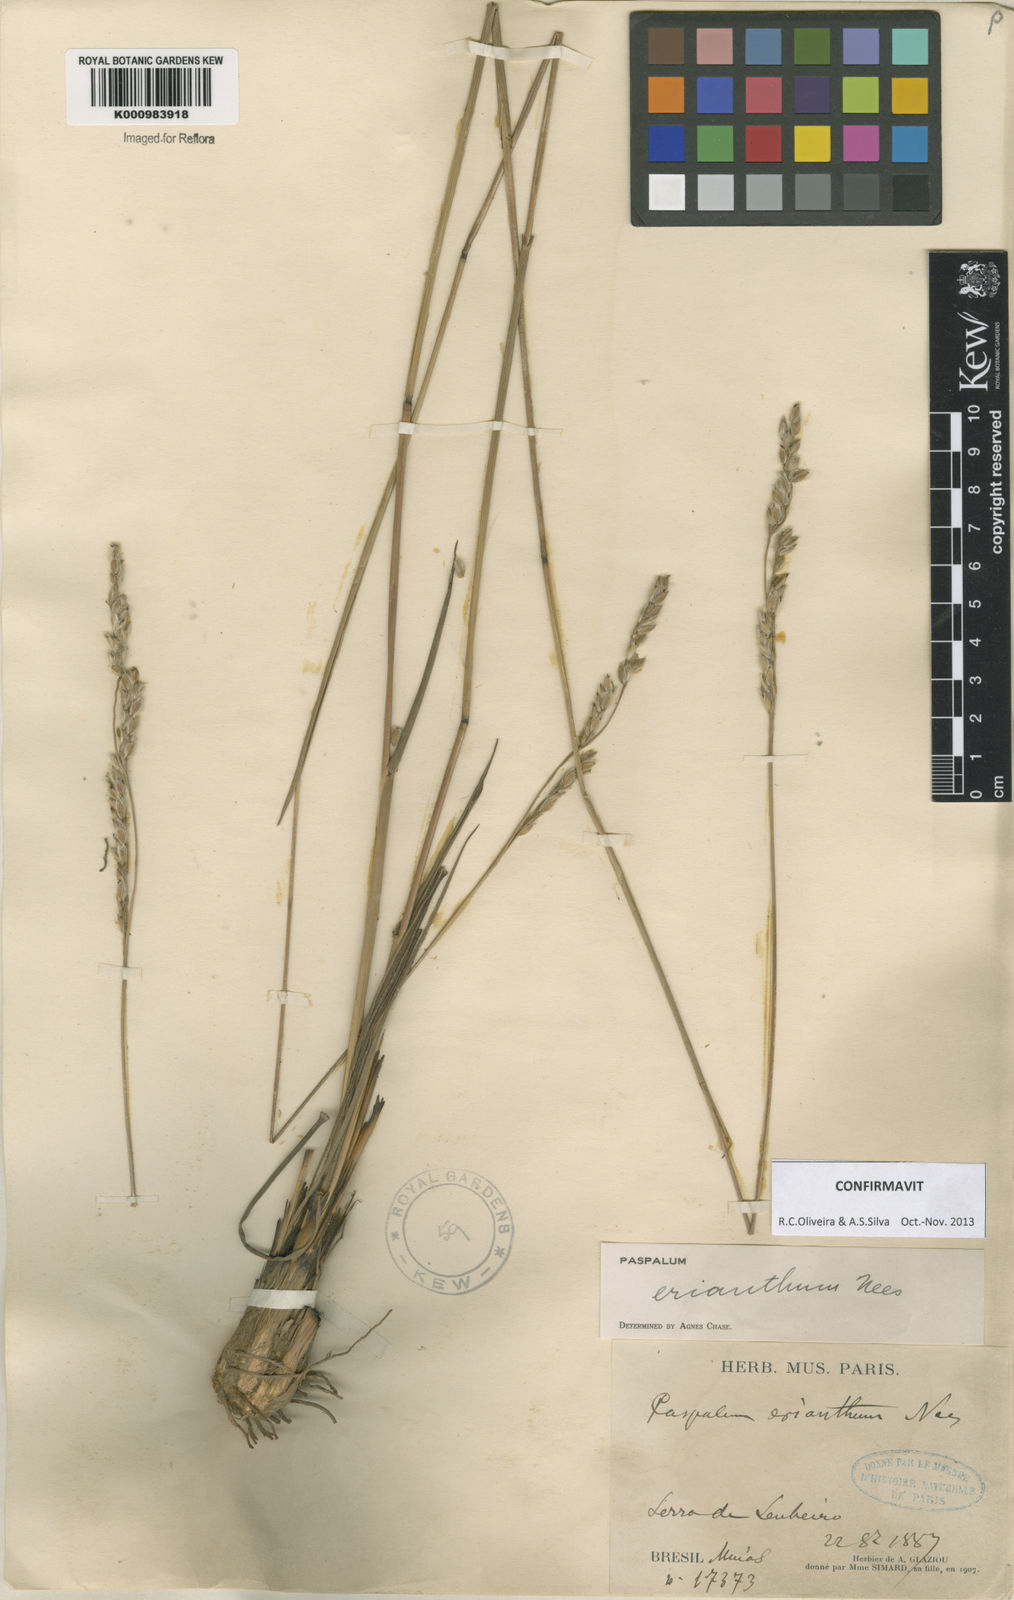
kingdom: Plantae
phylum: Tracheophyta
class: Liliopsida
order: Poales
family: Poaceae
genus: Paspalum
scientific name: Paspalum erianthum
